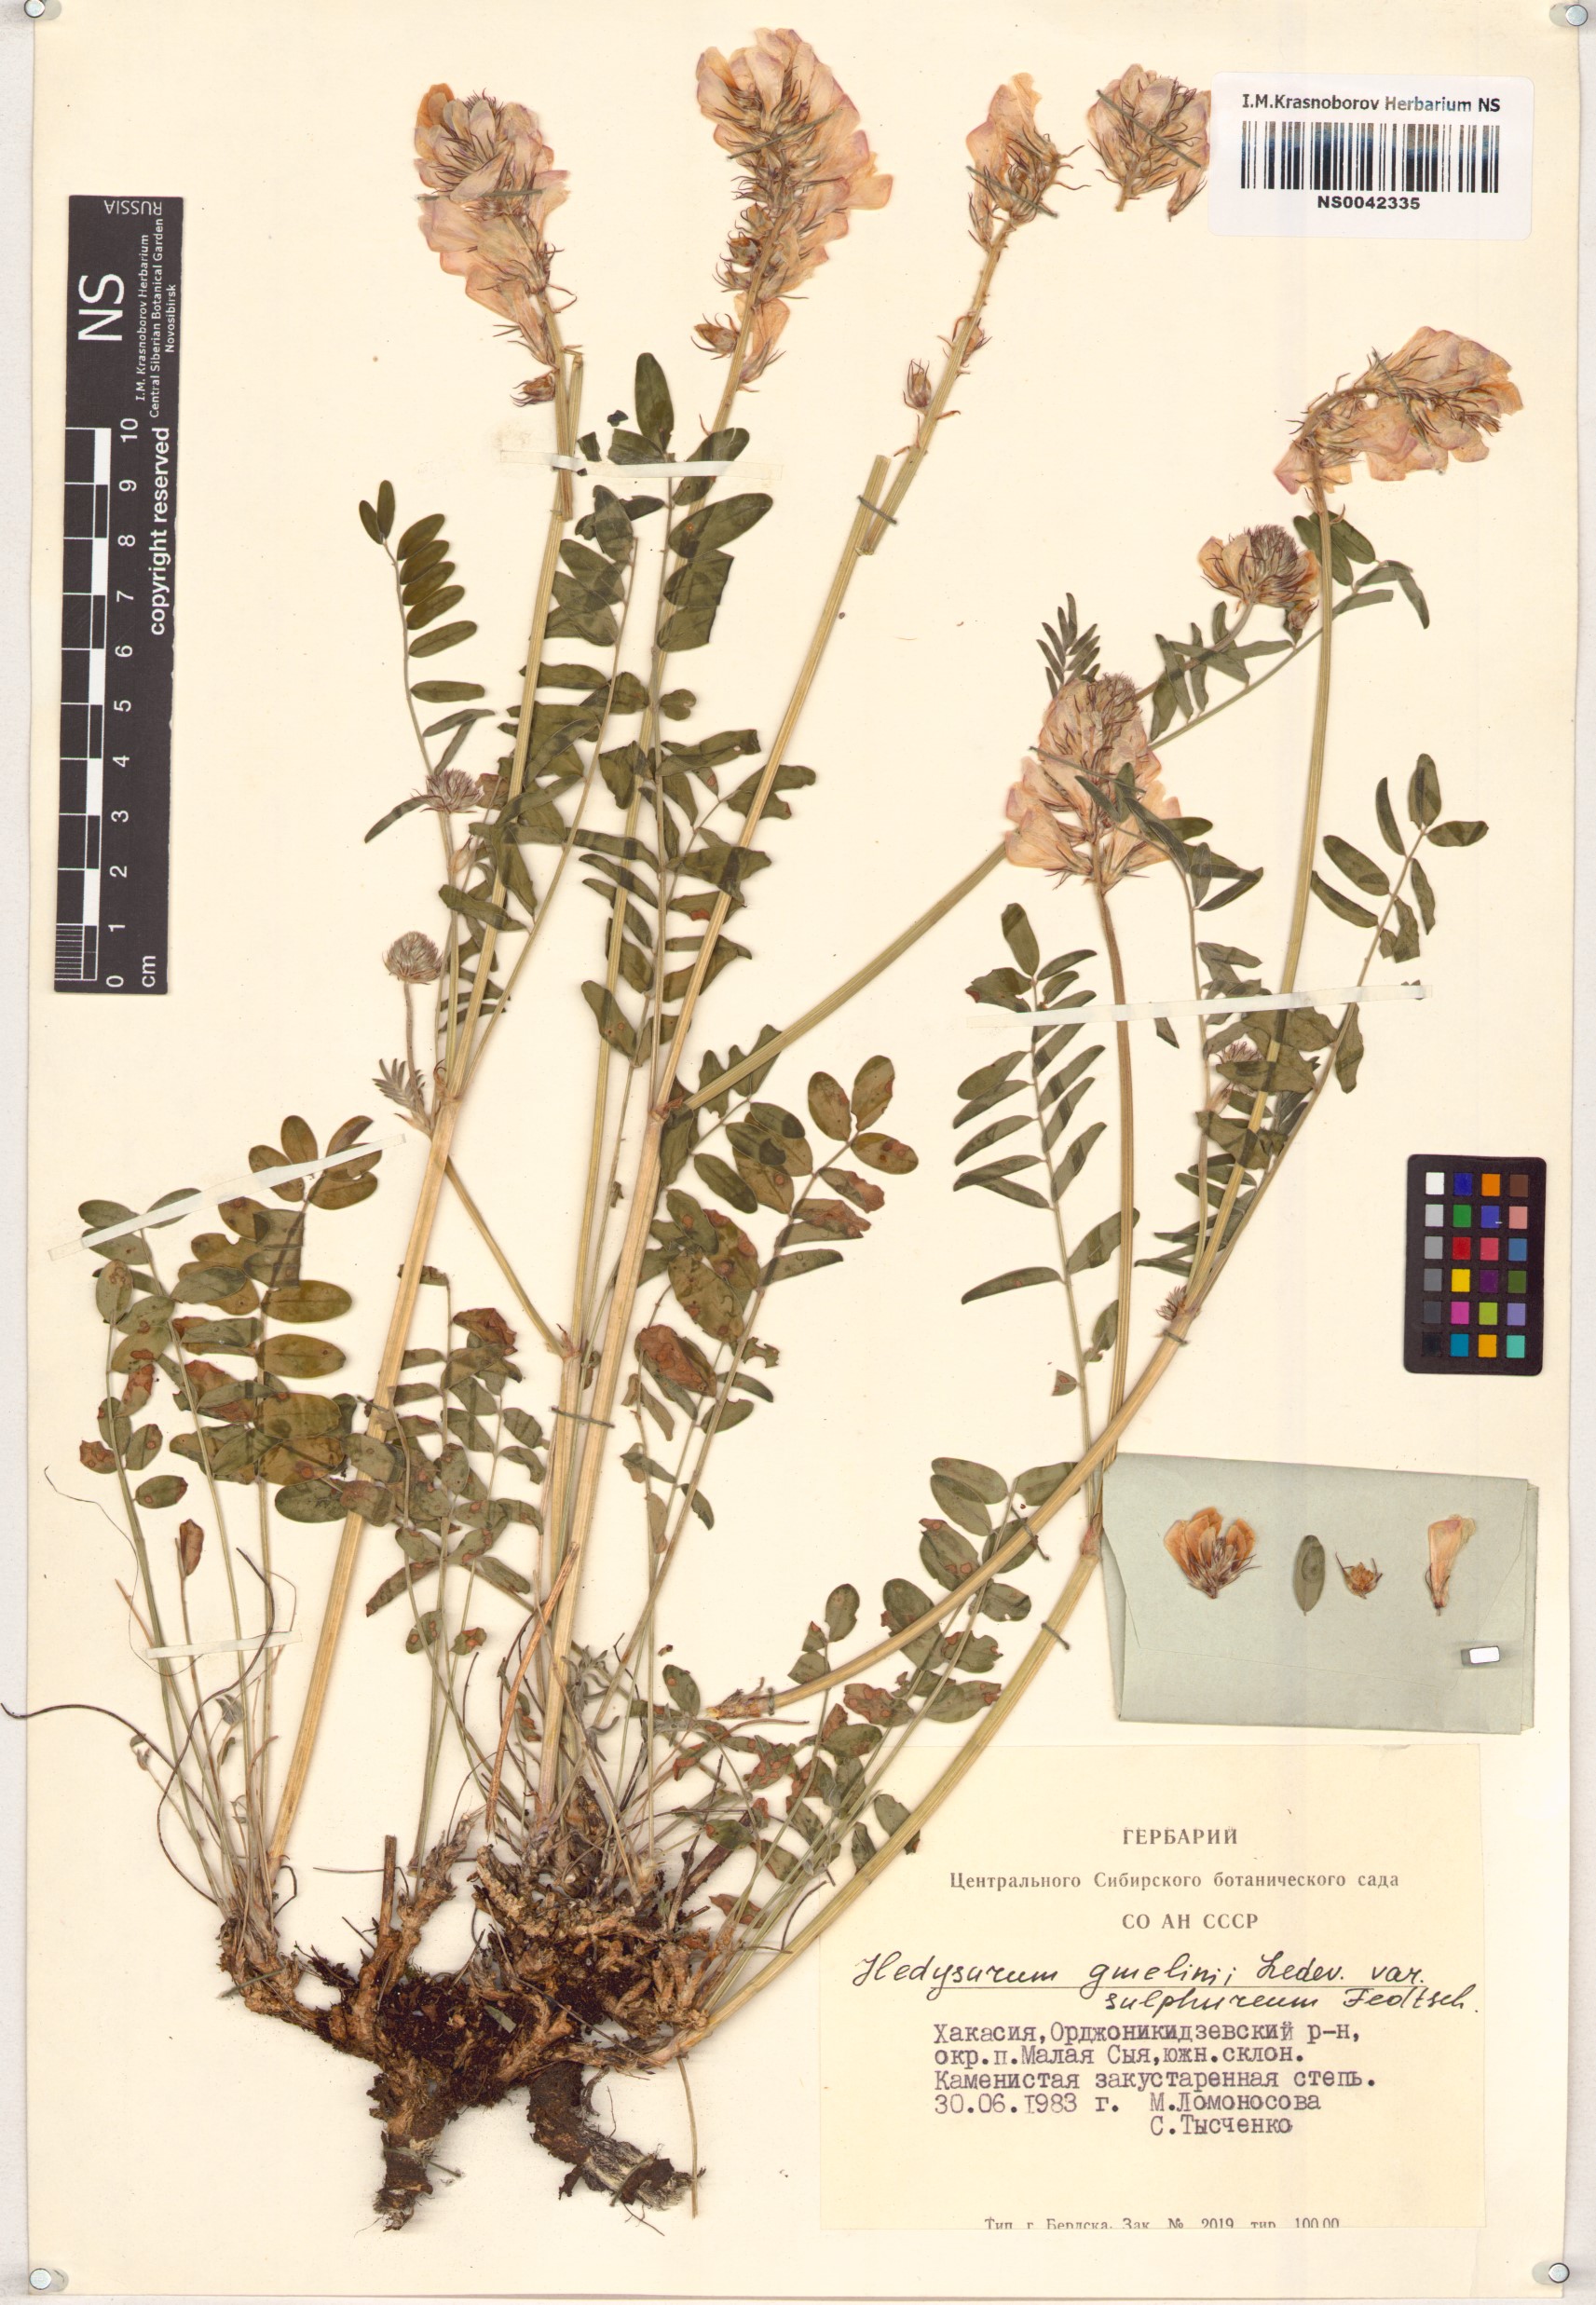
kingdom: Plantae
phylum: Tracheophyta
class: Magnoliopsida
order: Fabales
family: Fabaceae
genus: Hedysarum
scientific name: Hedysarum gmelinii
